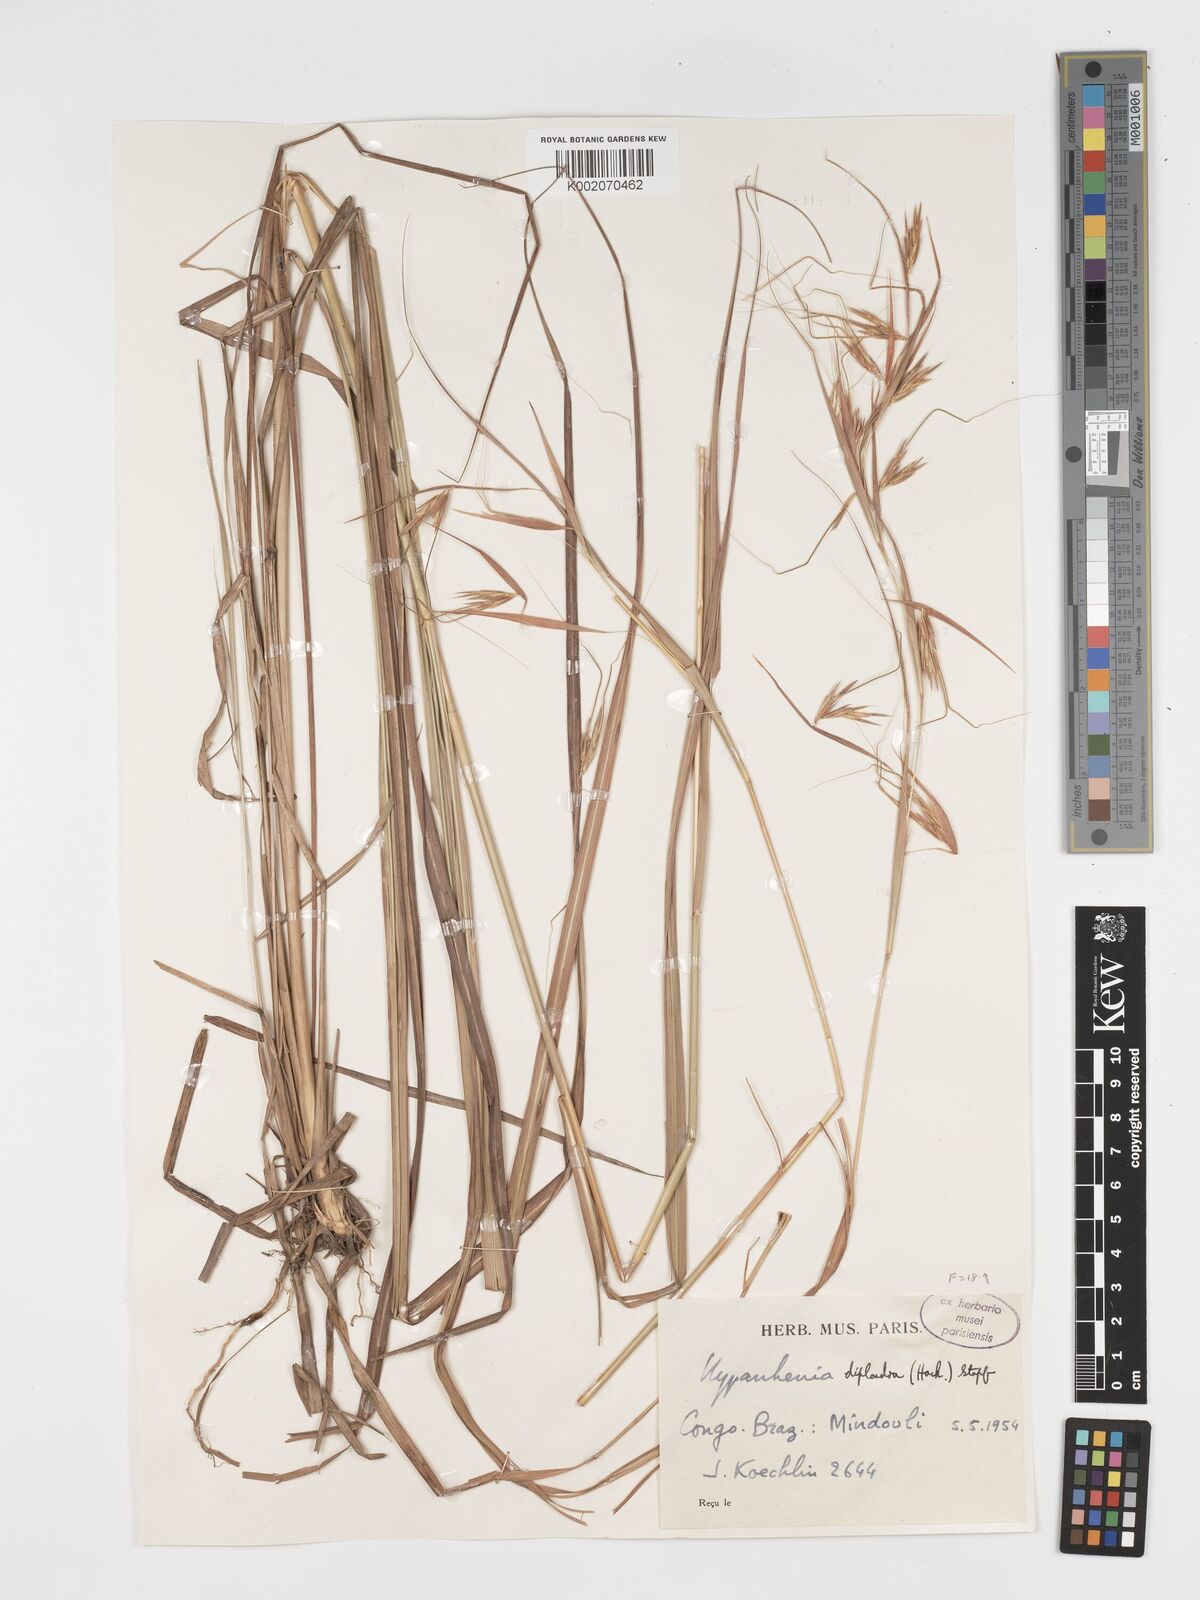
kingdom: Plantae
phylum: Tracheophyta
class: Liliopsida
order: Poales
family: Poaceae
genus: Hyparrhenia
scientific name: Hyparrhenia diplandra
